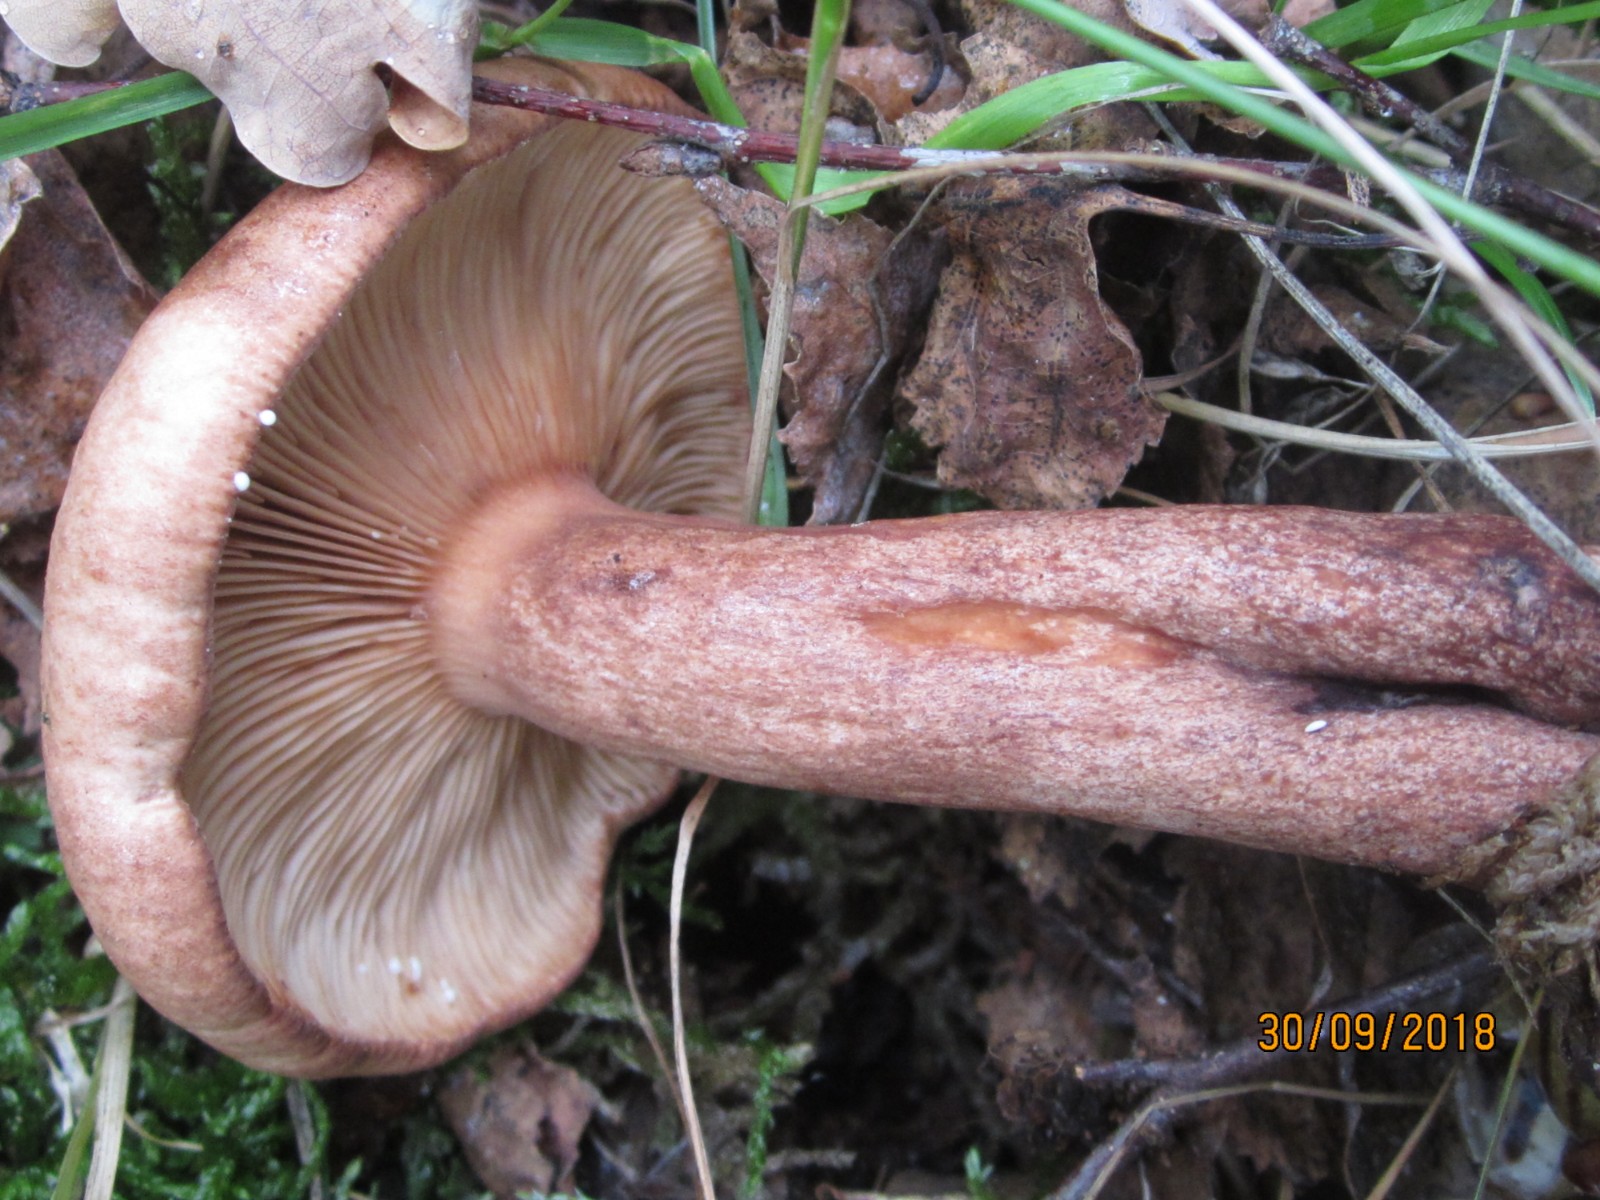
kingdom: Fungi
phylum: Basidiomycota
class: Agaricomycetes
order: Russulales
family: Russulaceae
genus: Lactarius
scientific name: Lactarius quietus
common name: ege-mælkehat
